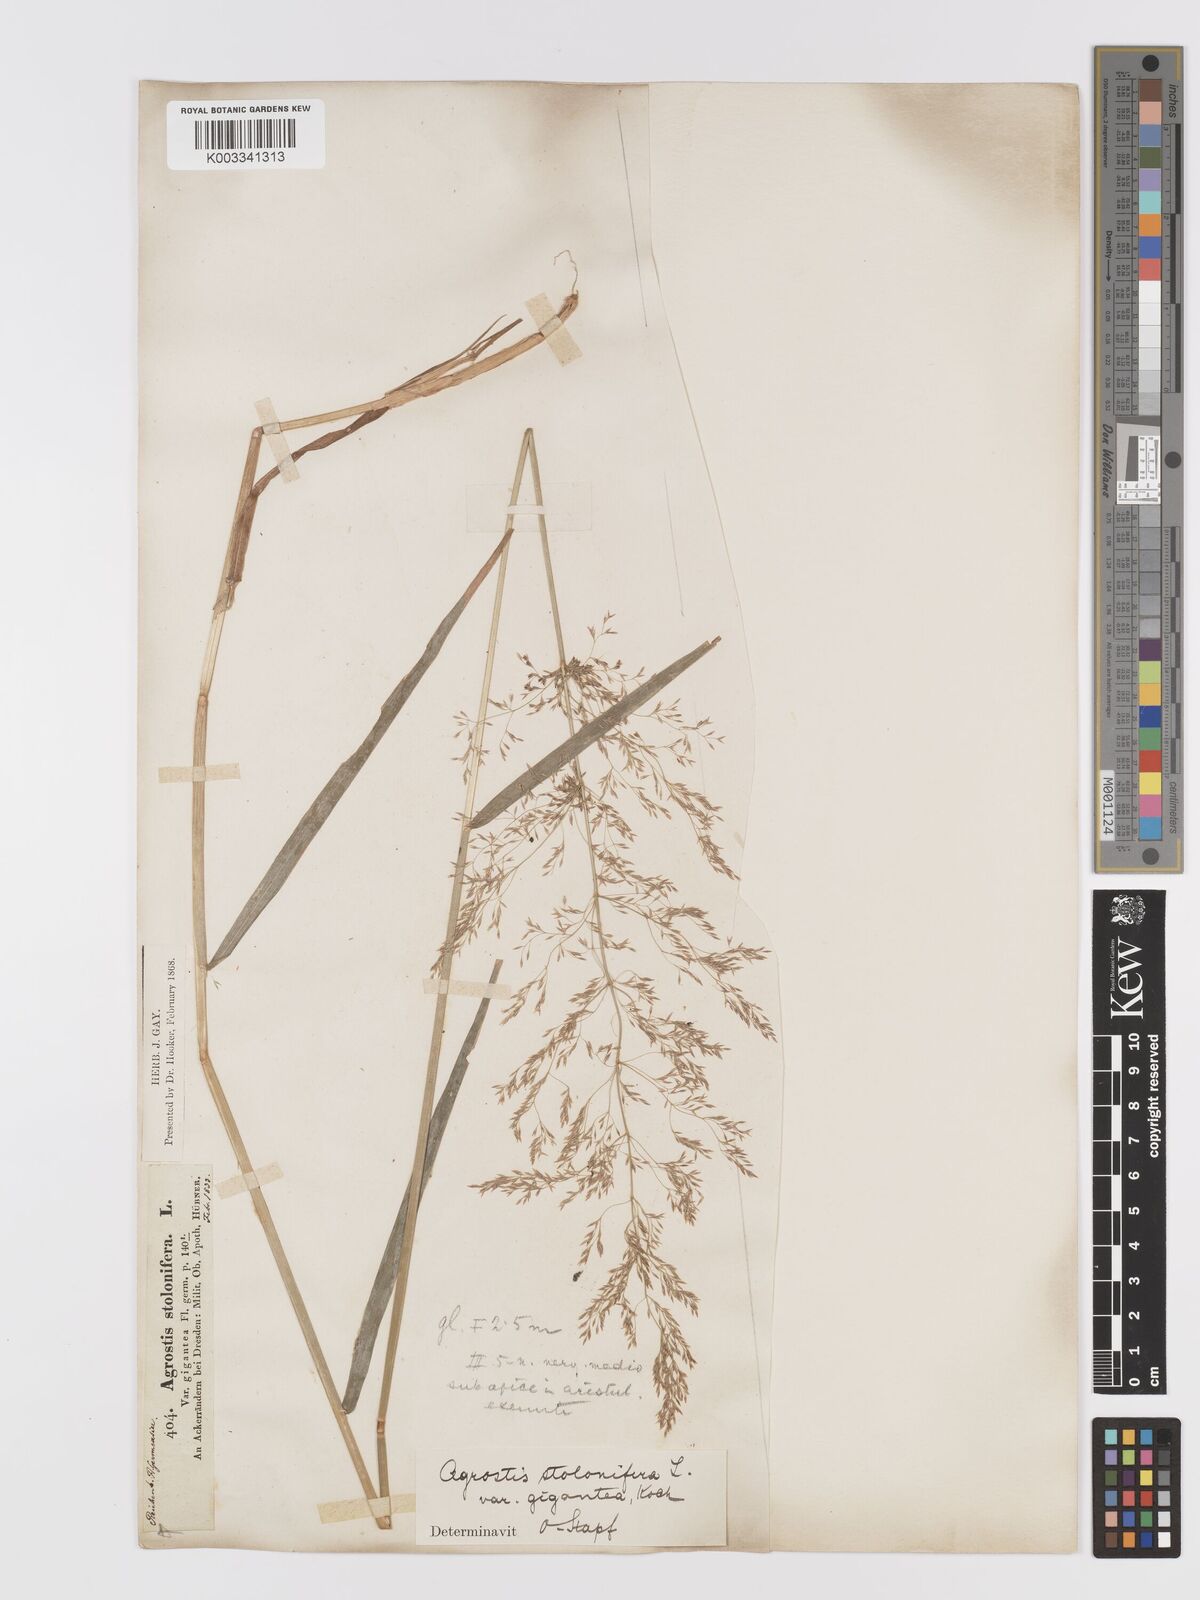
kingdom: Plantae
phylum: Tracheophyta
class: Liliopsida
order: Poales
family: Poaceae
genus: Agrostis
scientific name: Agrostis gigantea
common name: Black bent
